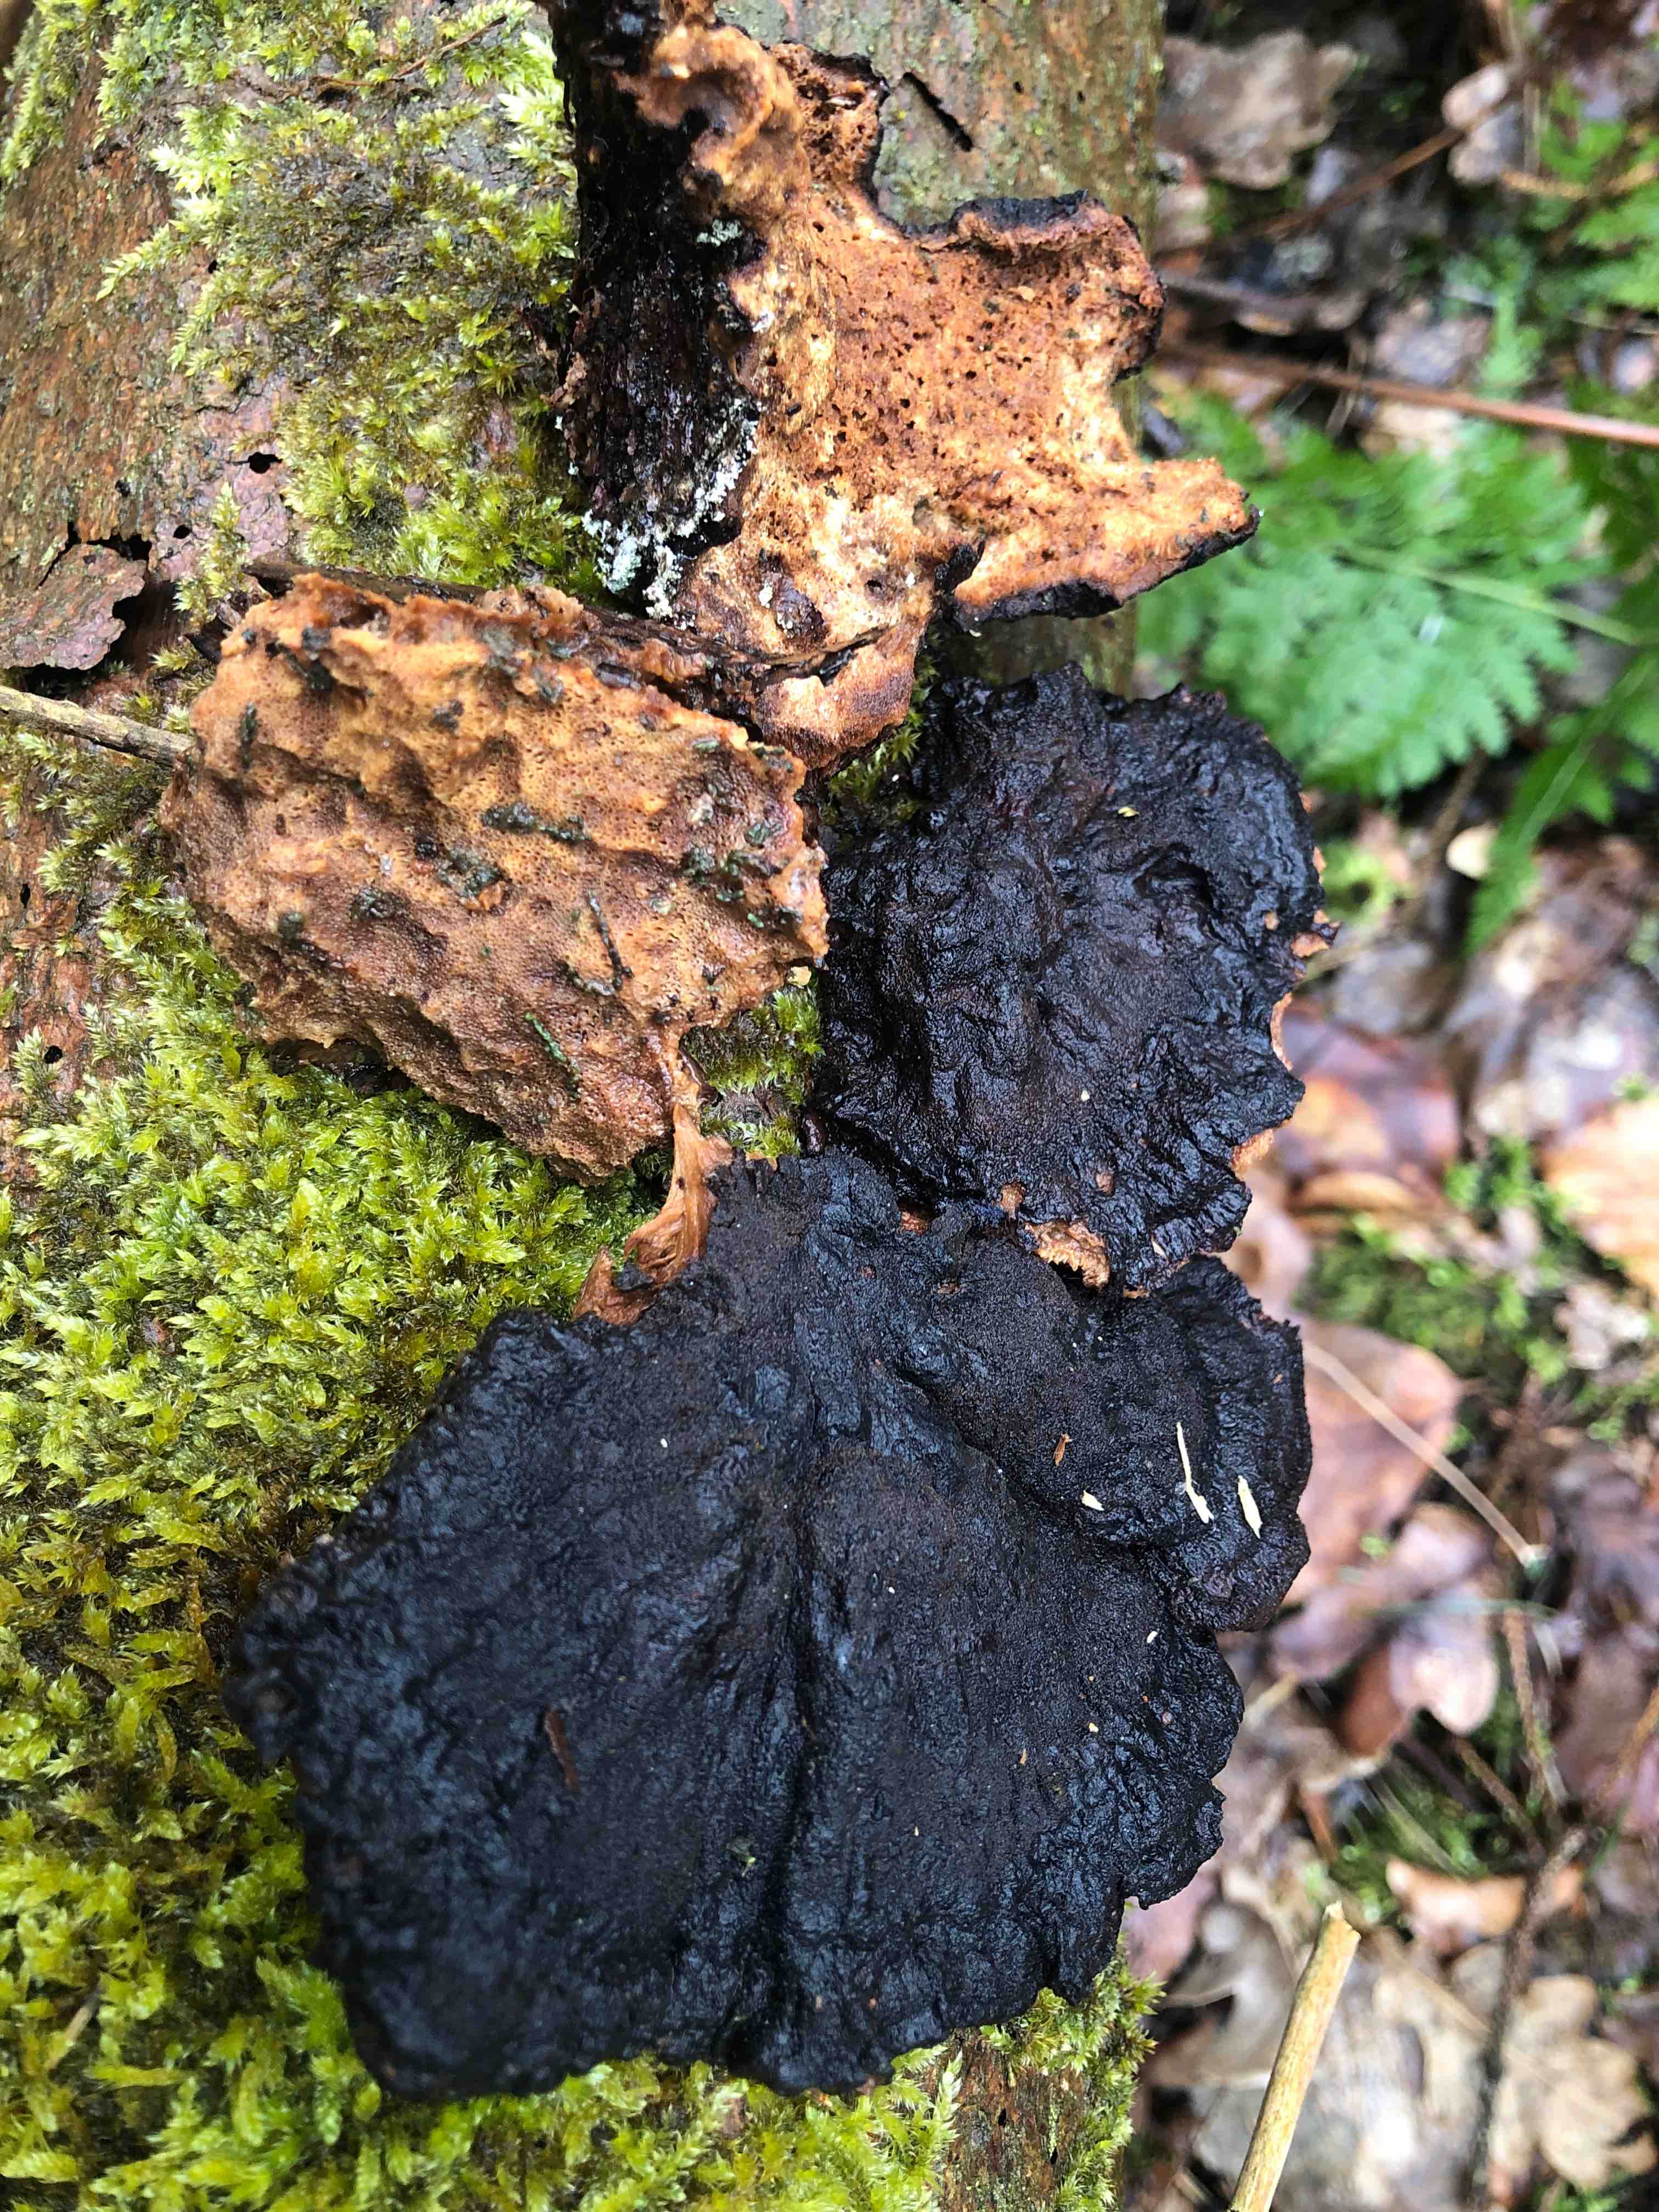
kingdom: Fungi
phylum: Basidiomycota
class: Agaricomycetes
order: Polyporales
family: Ischnodermataceae
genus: Ischnoderma
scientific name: Ischnoderma benzoinum
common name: gran-tjæreporesvamp
